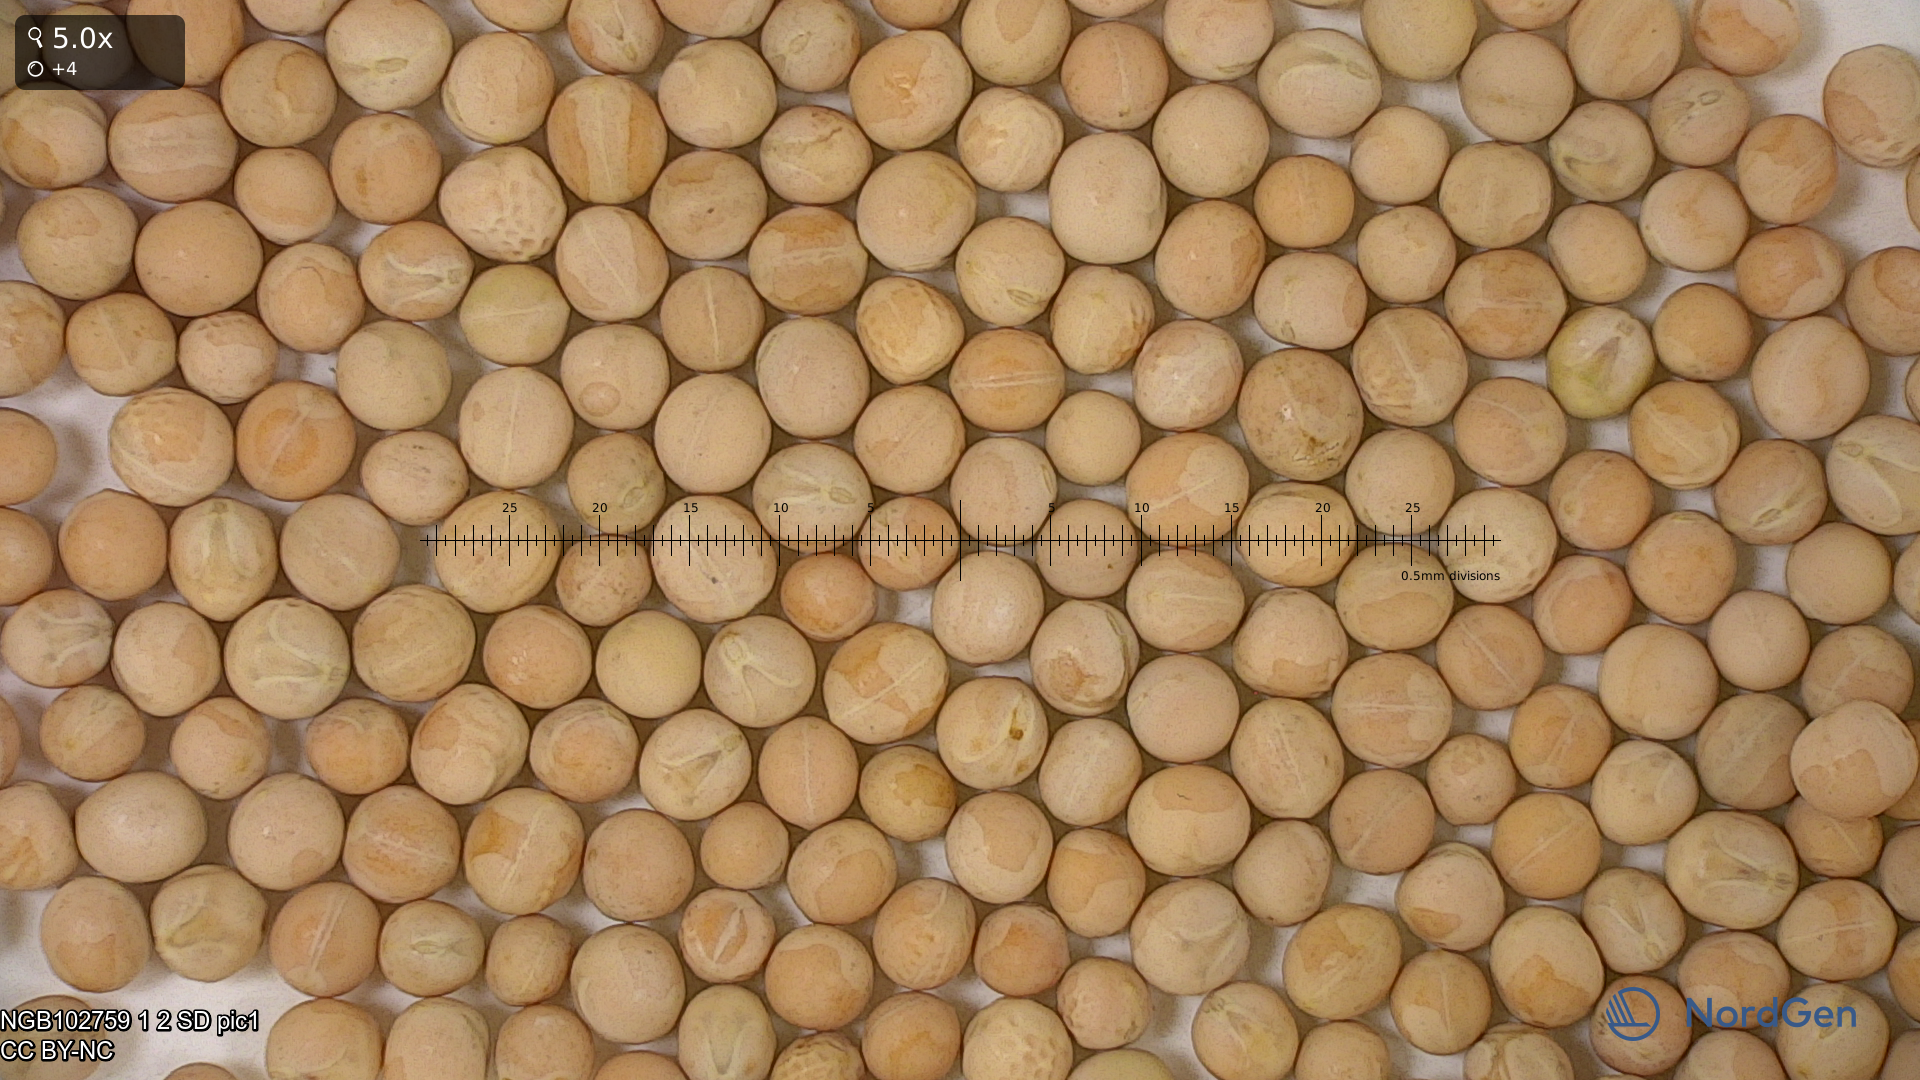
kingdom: Plantae
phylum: Tracheophyta
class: Magnoliopsida
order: Fabales
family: Fabaceae
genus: Lathyrus
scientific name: Lathyrus oleraceus
